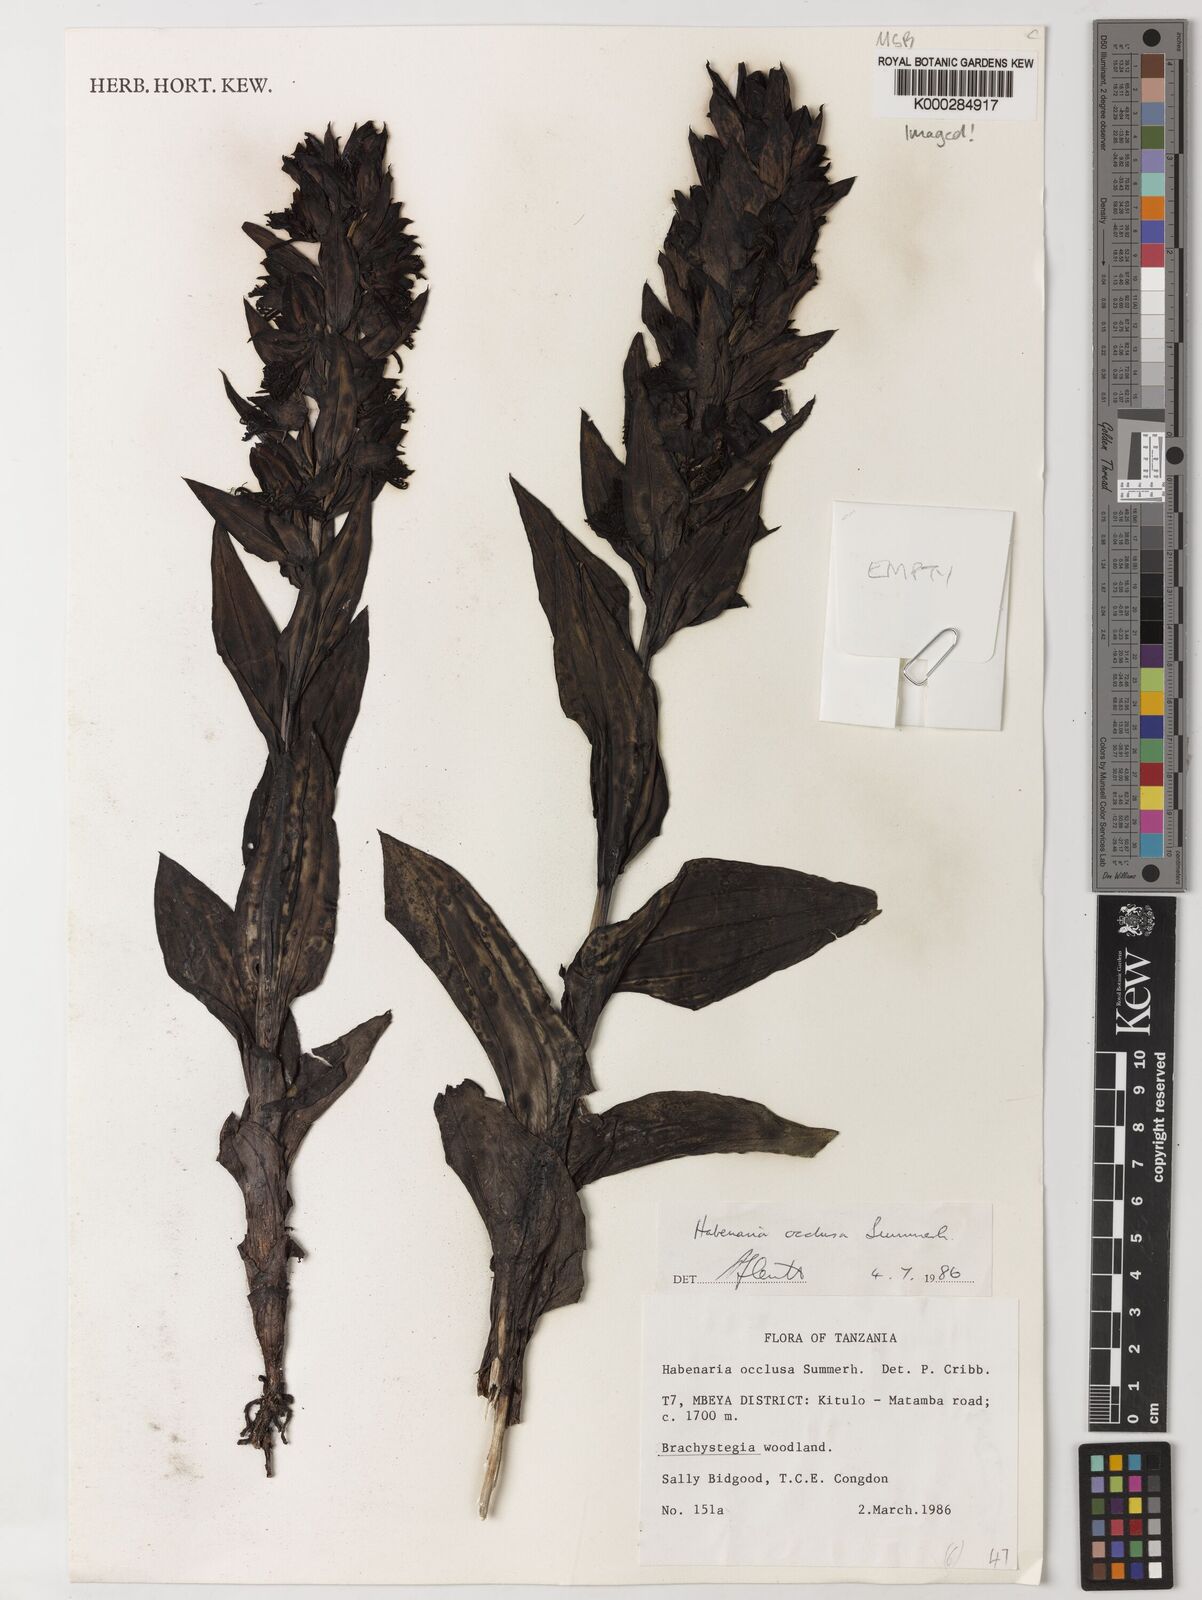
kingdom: Plantae
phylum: Tracheophyta
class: Liliopsida
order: Asparagales
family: Orchidaceae
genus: Habenaria
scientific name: Habenaria occlusa
